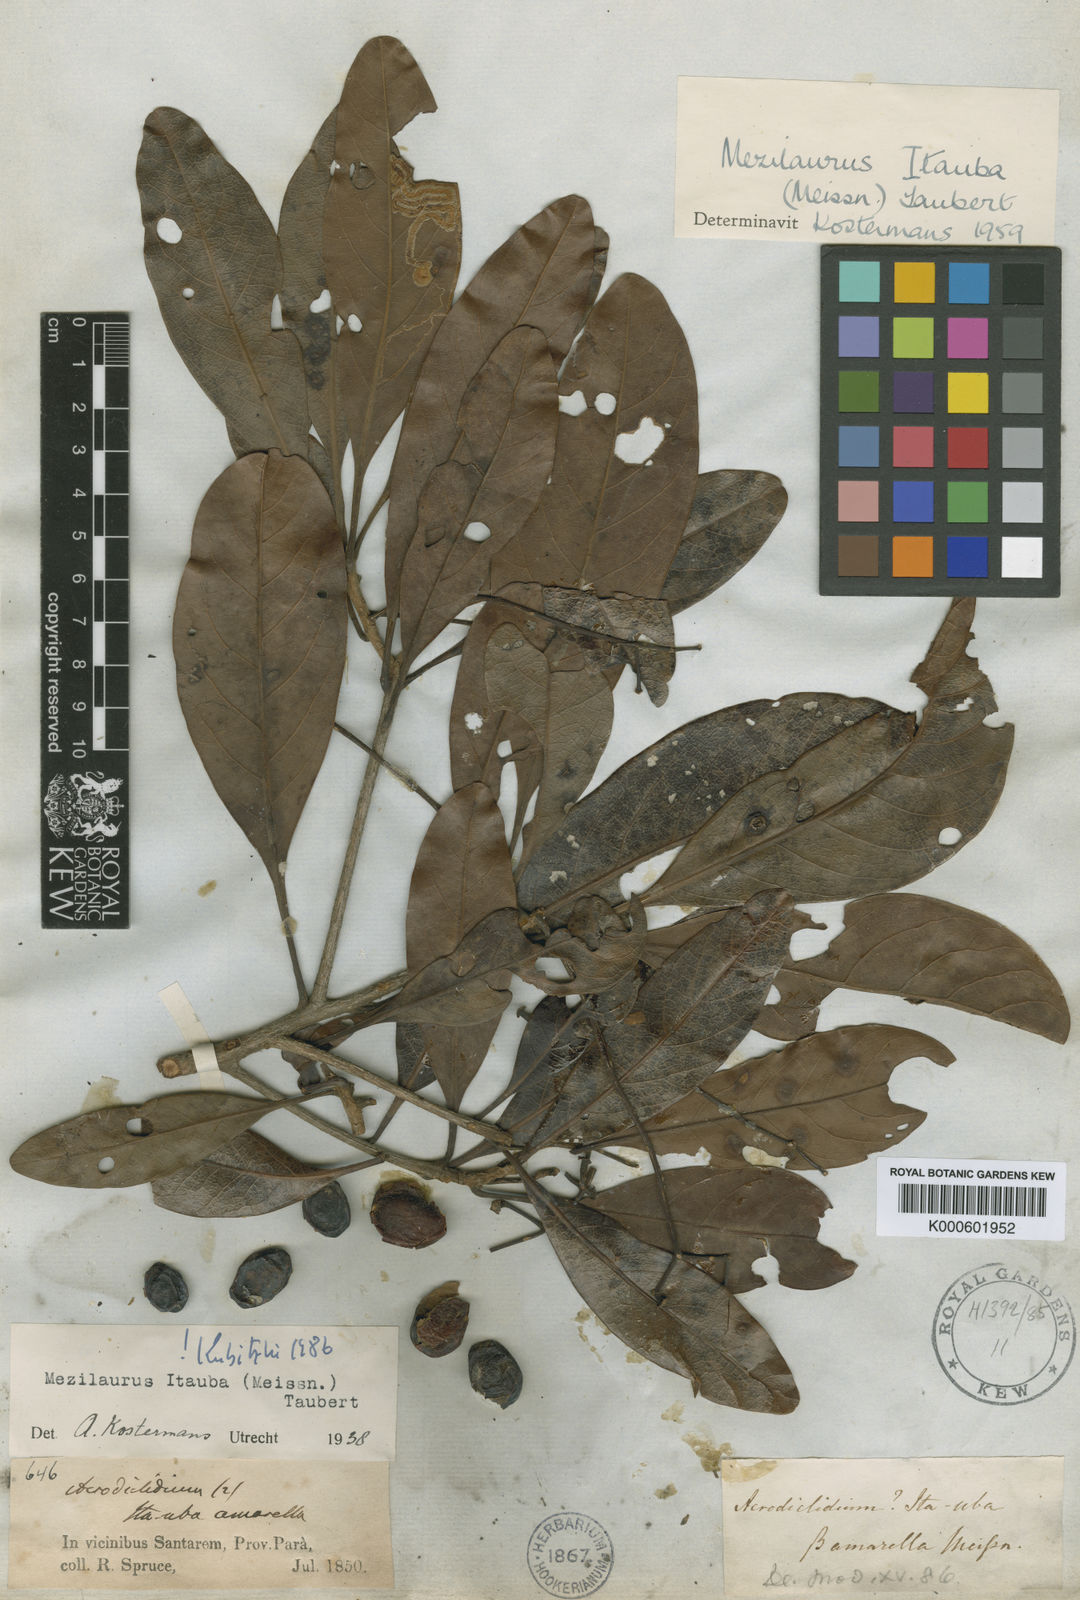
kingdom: Plantae
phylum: Tracheophyta
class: Magnoliopsida
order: Laurales
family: Lauraceae
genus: Mezilaurus
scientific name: Mezilaurus ita-uba
